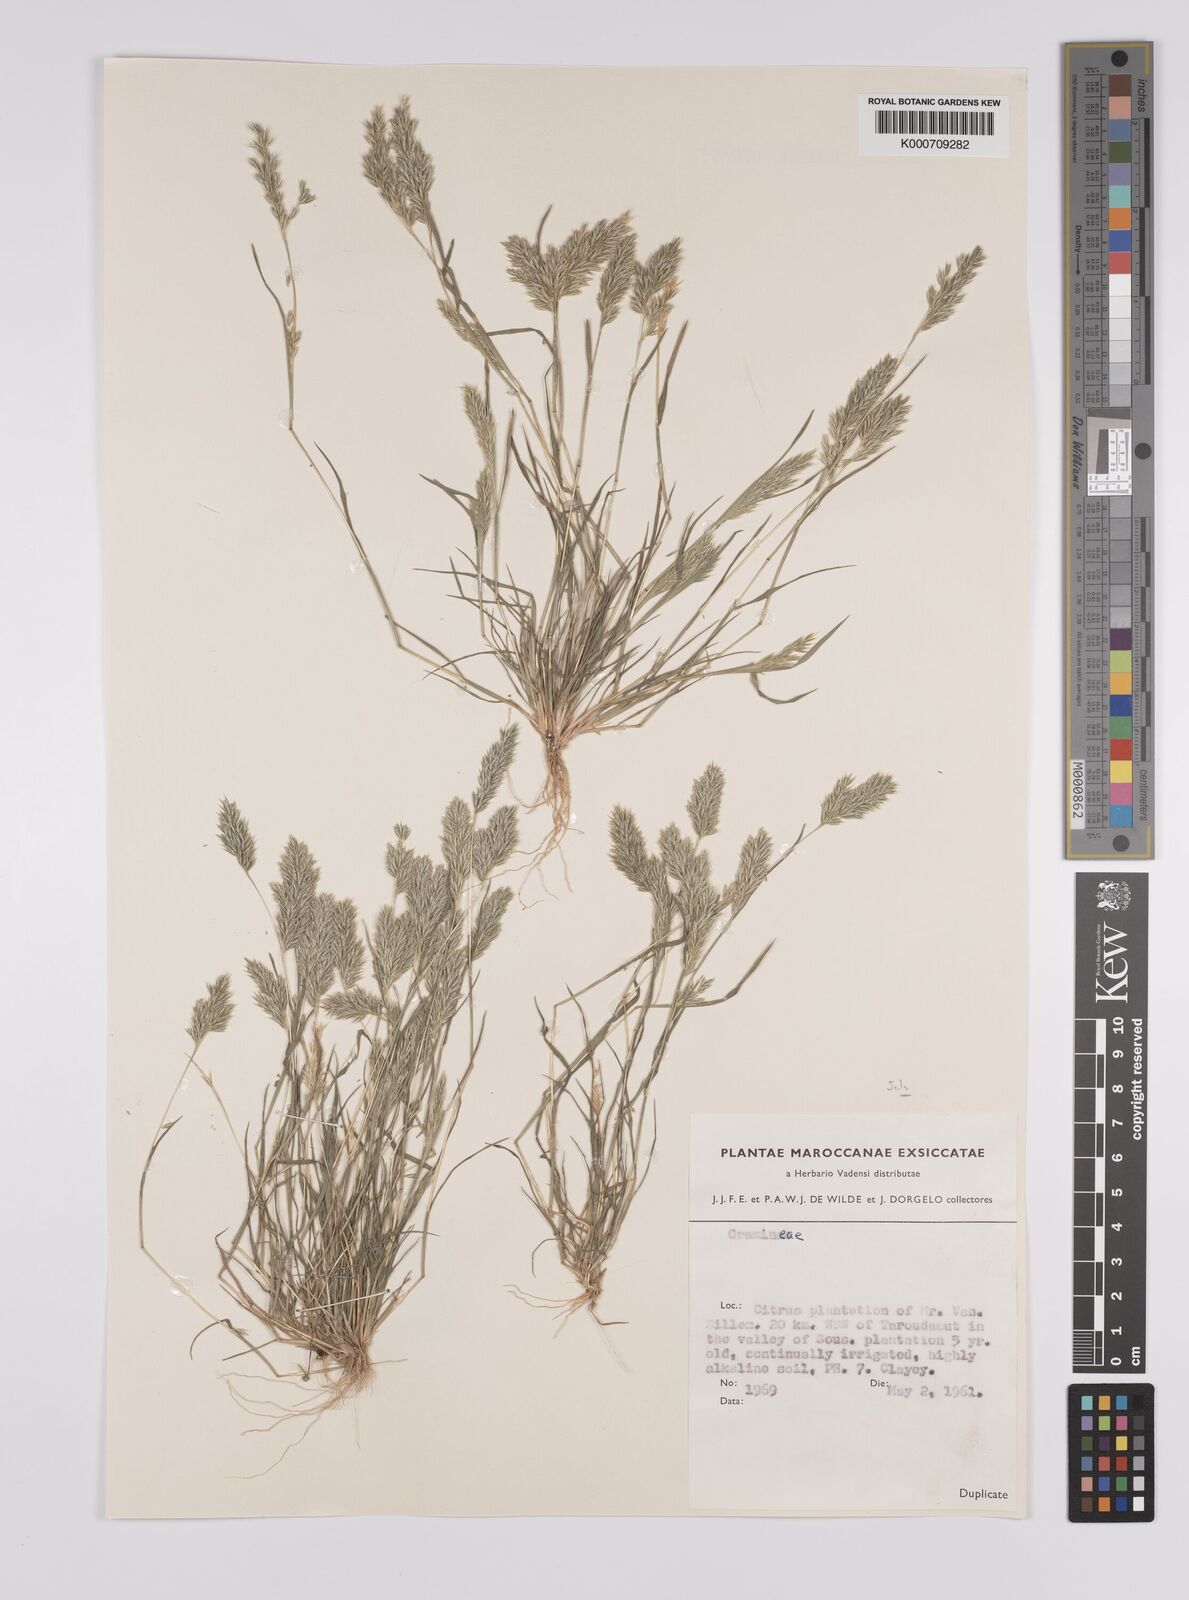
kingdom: Plantae
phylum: Tracheophyta
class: Liliopsida
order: Poales
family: Poaceae
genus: Schismus
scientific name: Schismus barbatus
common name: Kelch-grass
